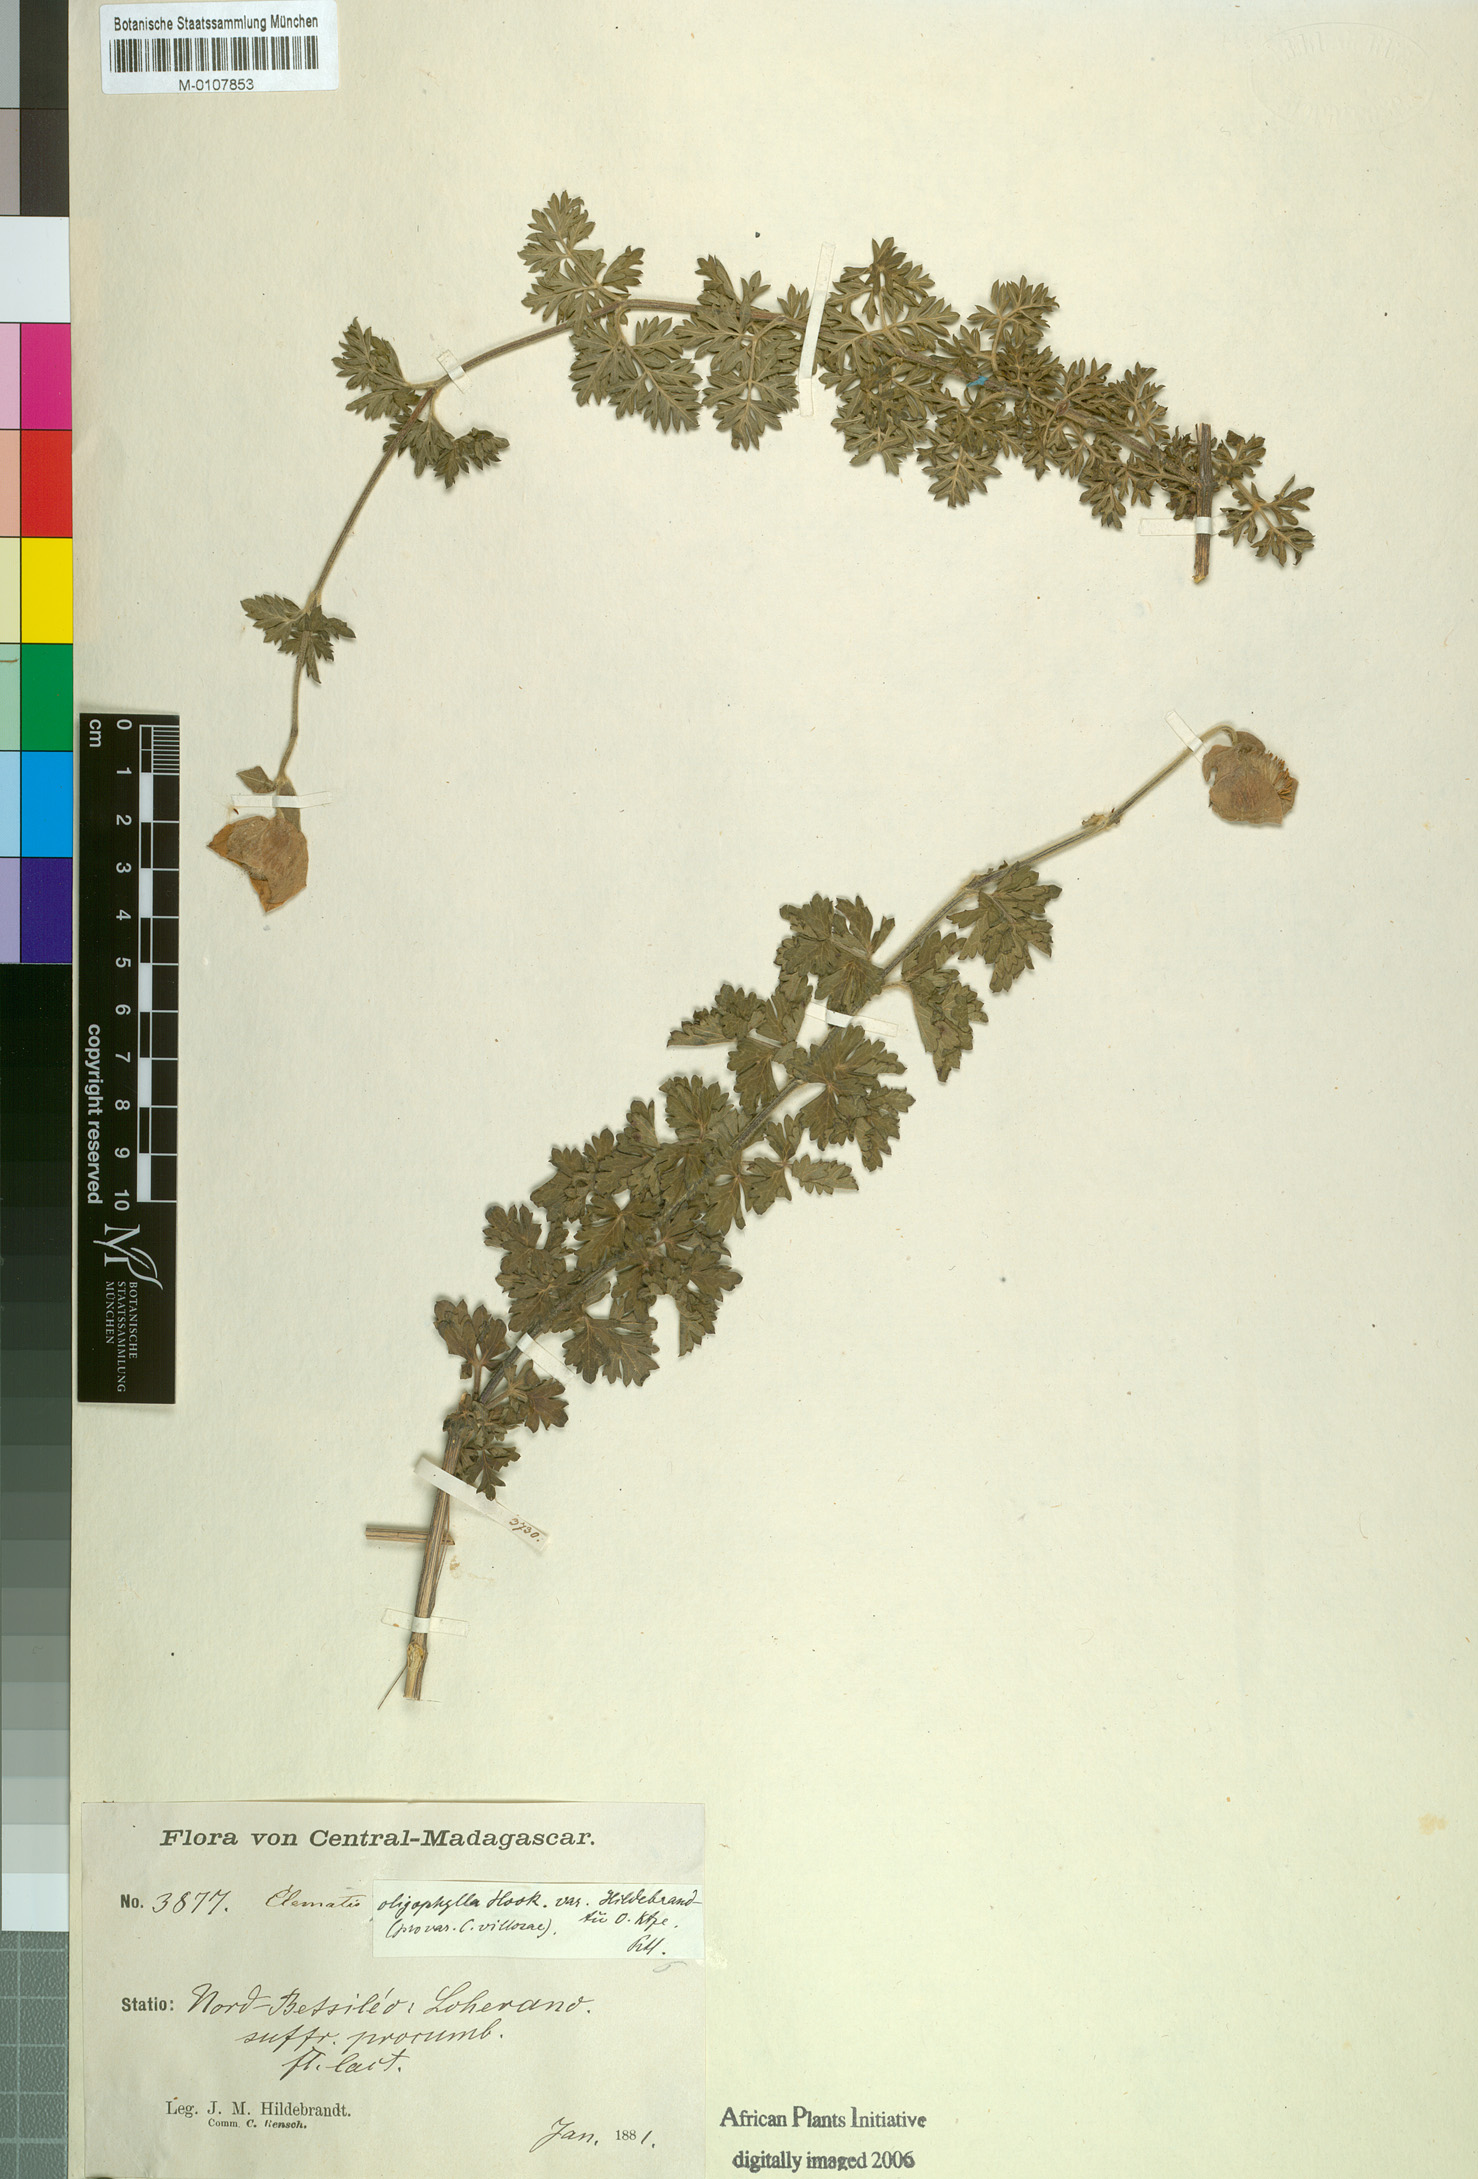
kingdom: Plantae
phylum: Tracheophyta
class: Magnoliopsida
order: Ranunculales
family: Ranunculaceae
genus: Clematis
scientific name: Clematis oligophylla
